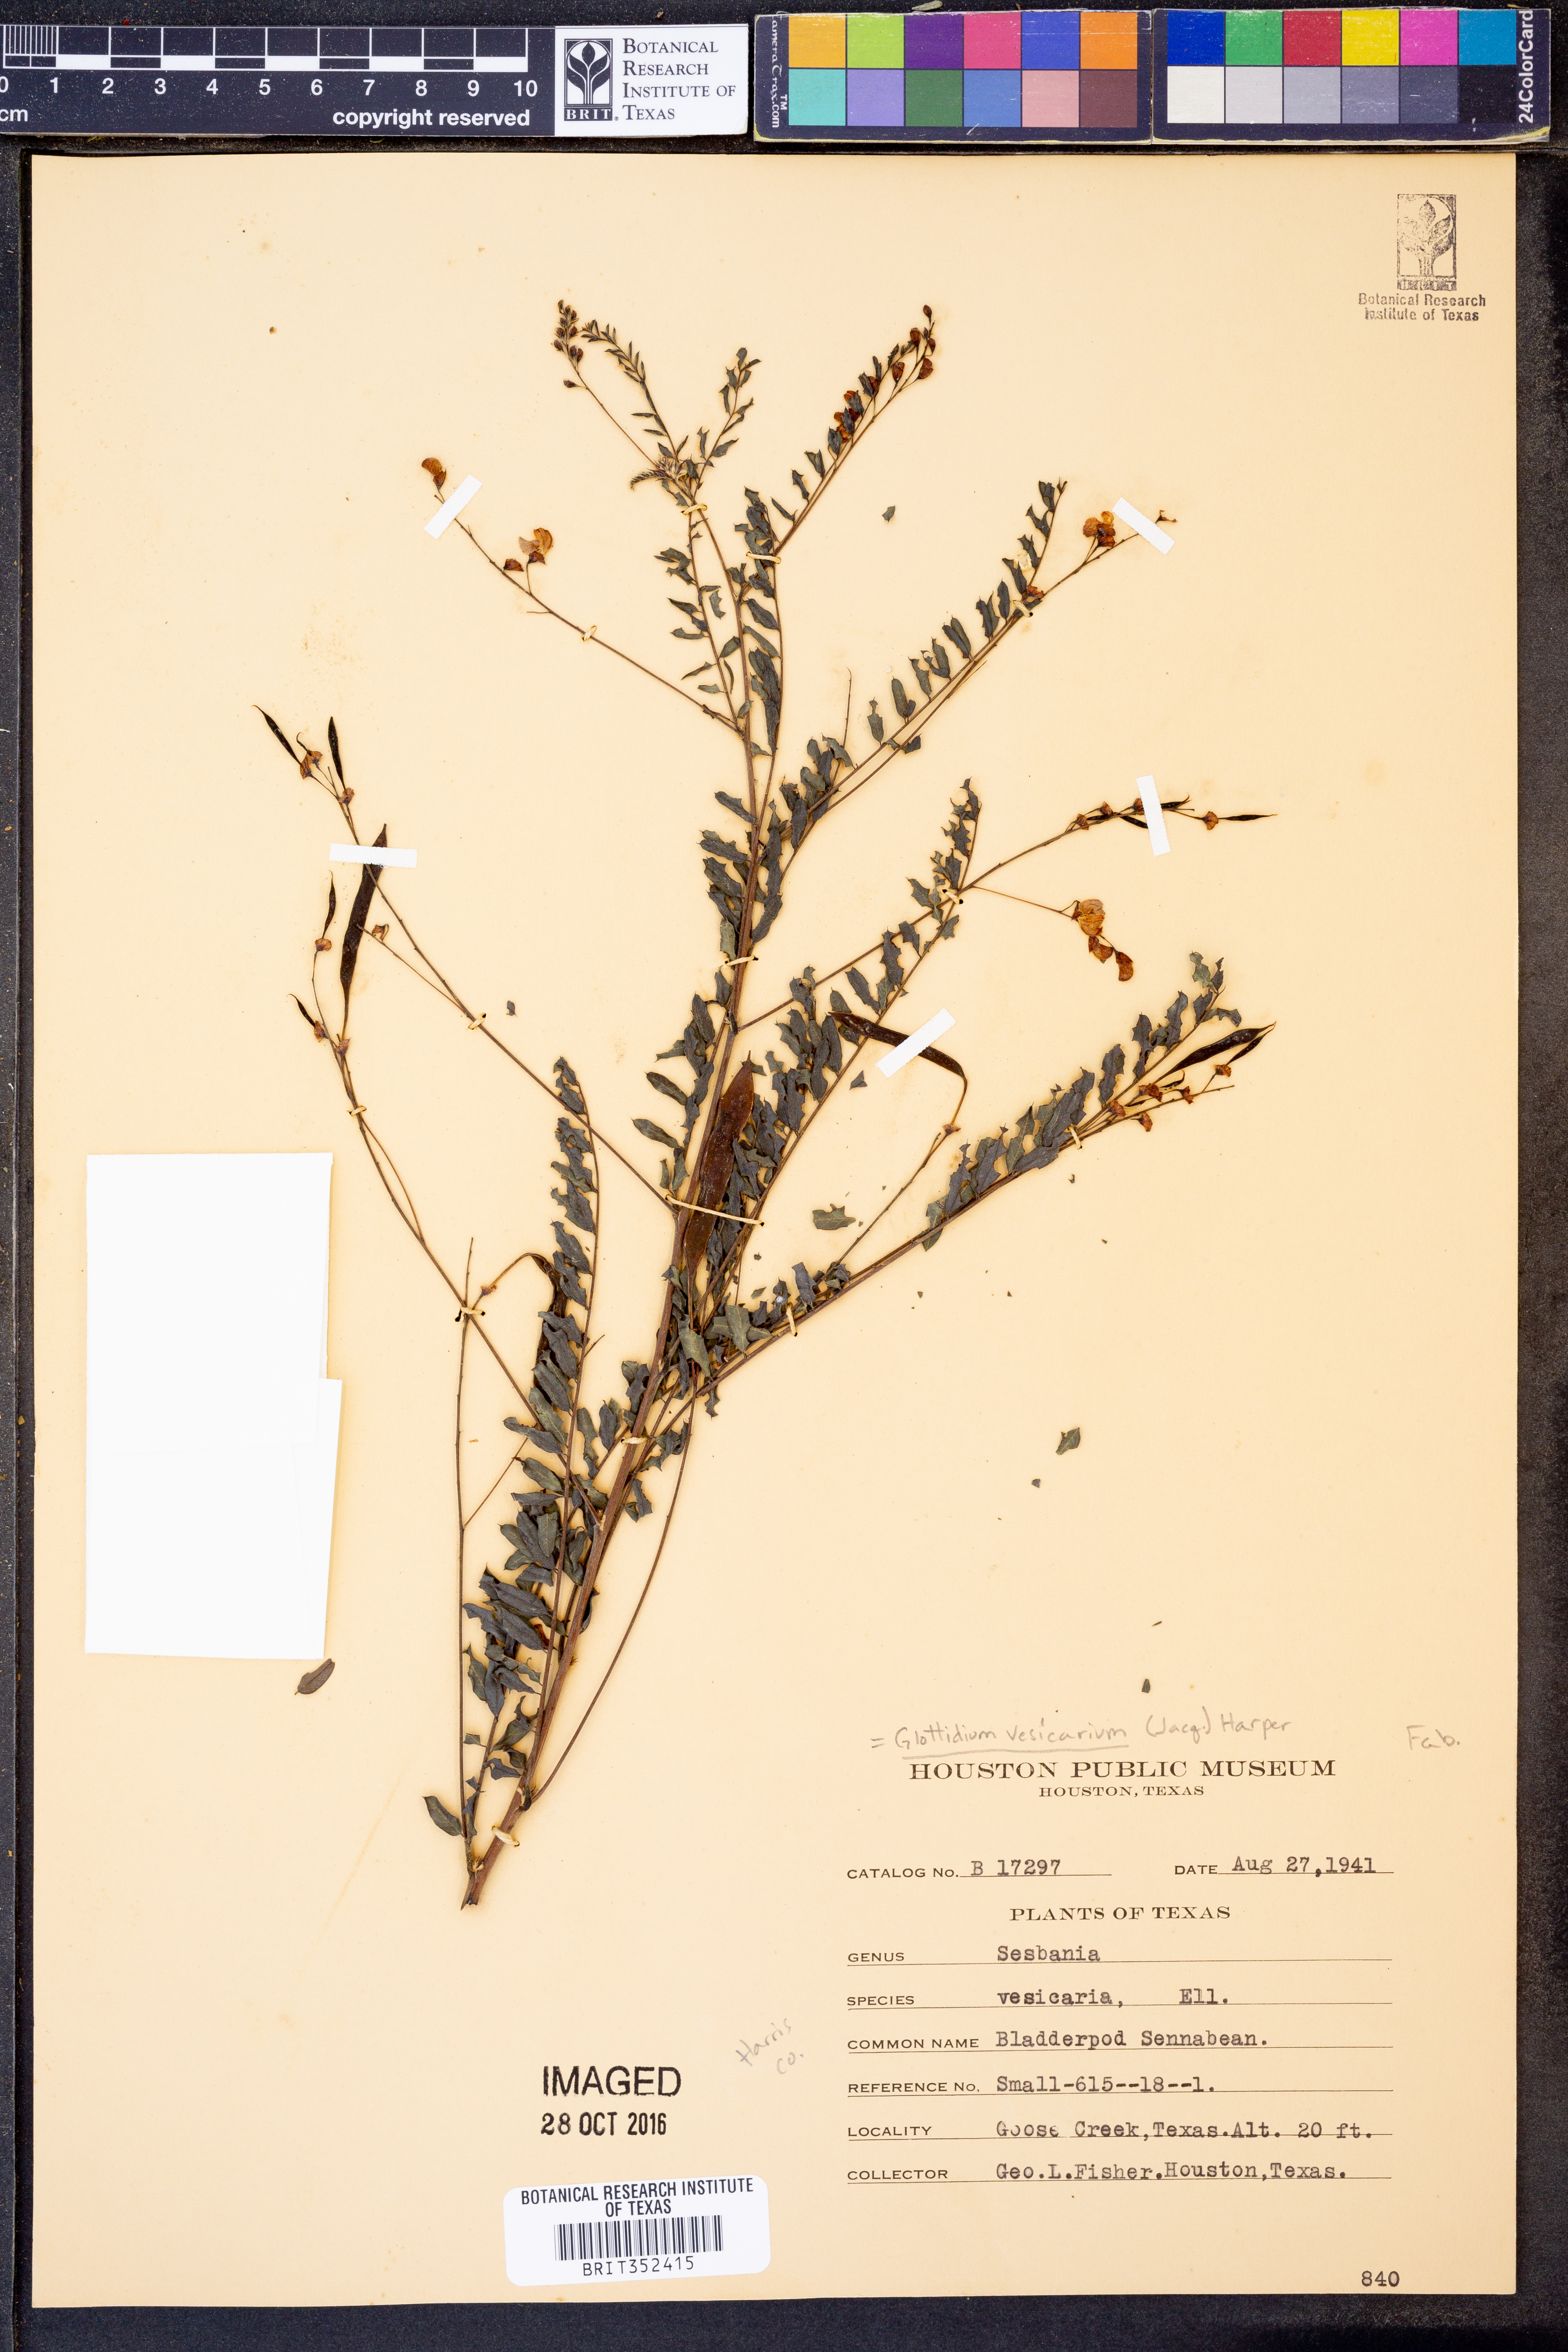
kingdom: Plantae
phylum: Tracheophyta
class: Magnoliopsida
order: Fabales
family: Fabaceae
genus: Sesbania
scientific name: Sesbania vesicaria
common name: Bagpod
